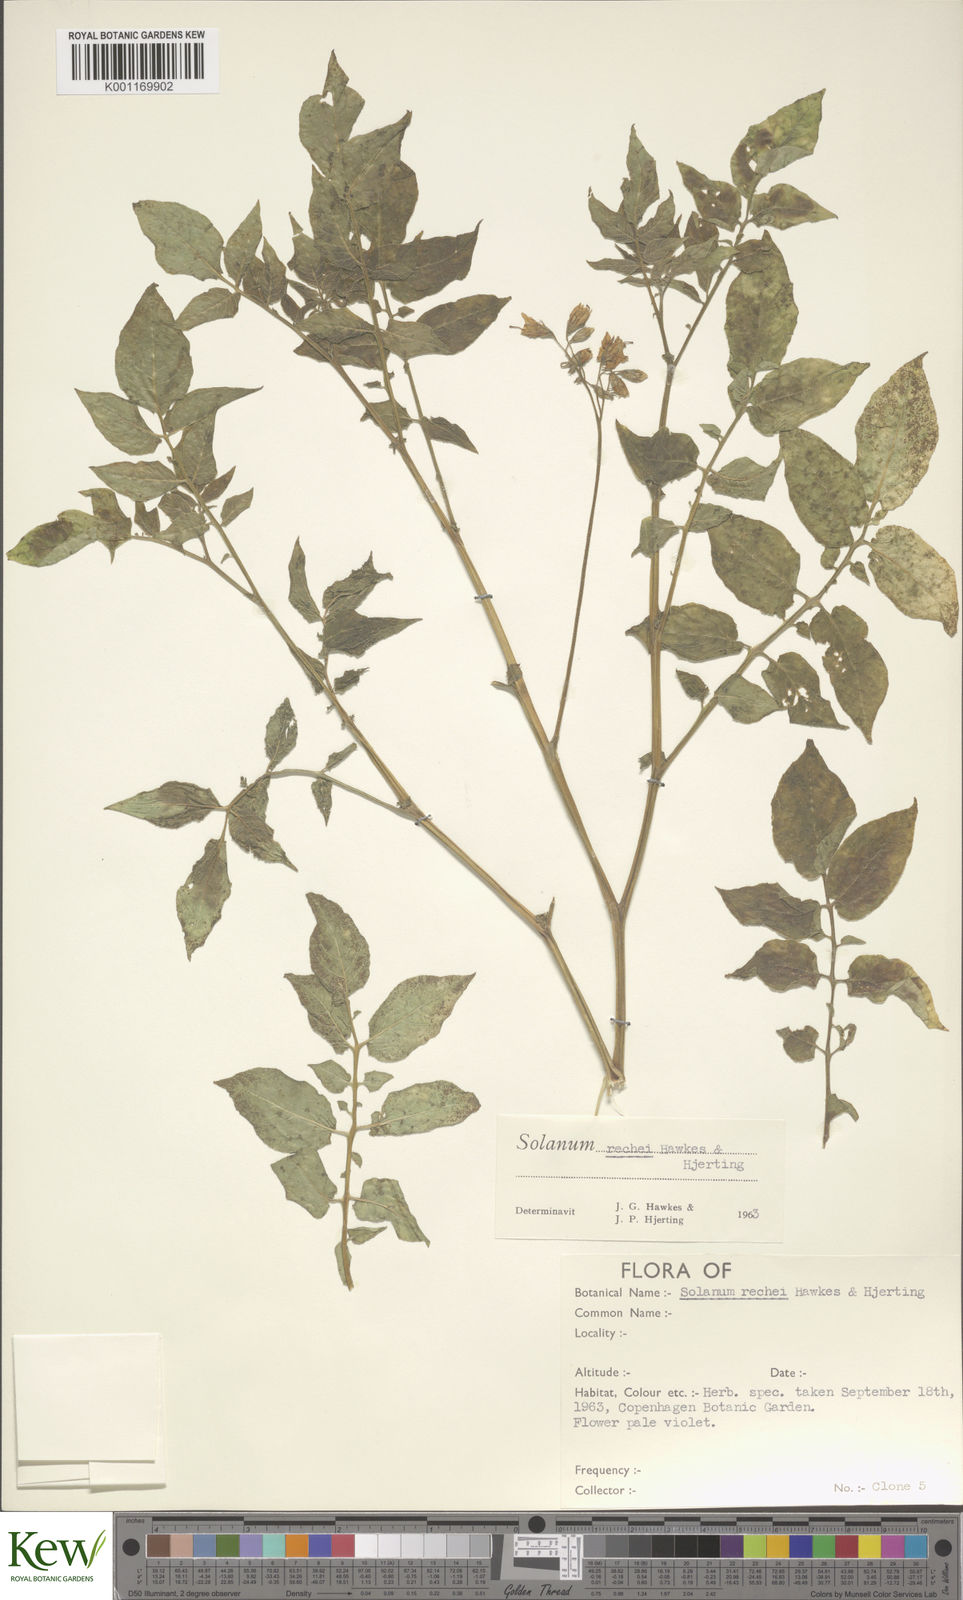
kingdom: Plantae
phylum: Tracheophyta
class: Magnoliopsida
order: Solanales
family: Solanaceae
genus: Solanum
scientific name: Solanum rechei
